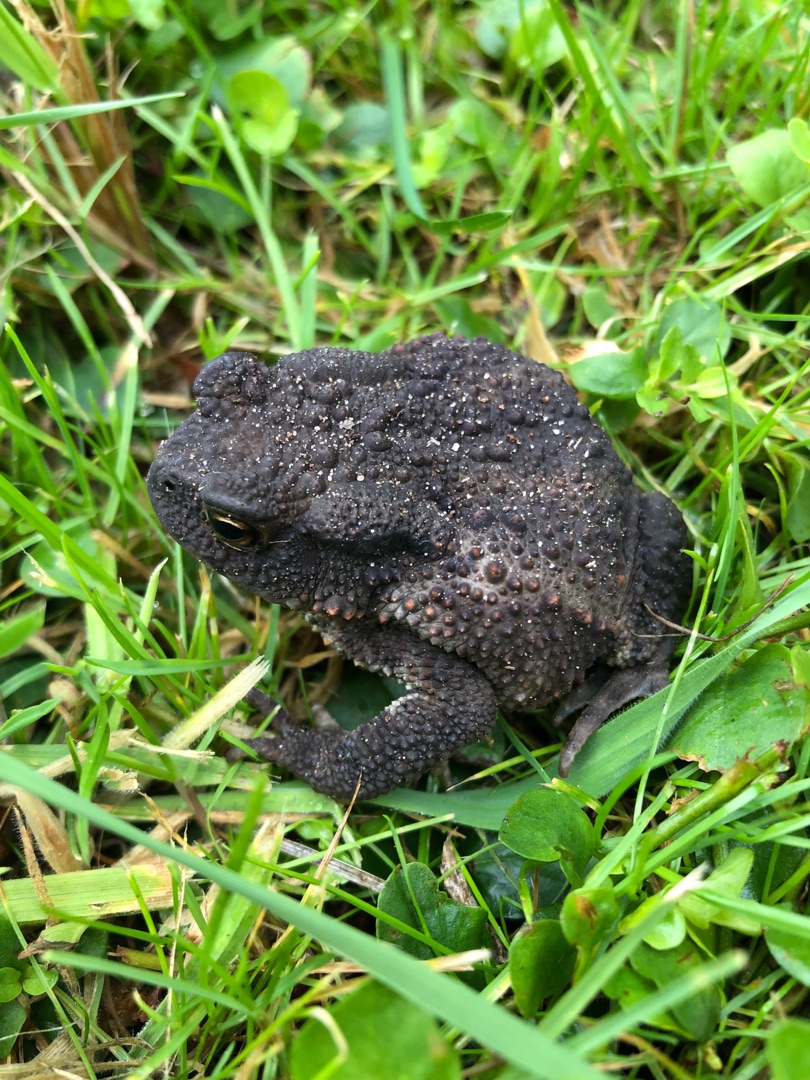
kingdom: Animalia
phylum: Chordata
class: Amphibia
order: Anura
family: Bufonidae
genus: Bufo
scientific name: Bufo bufo
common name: Skrubtudse
